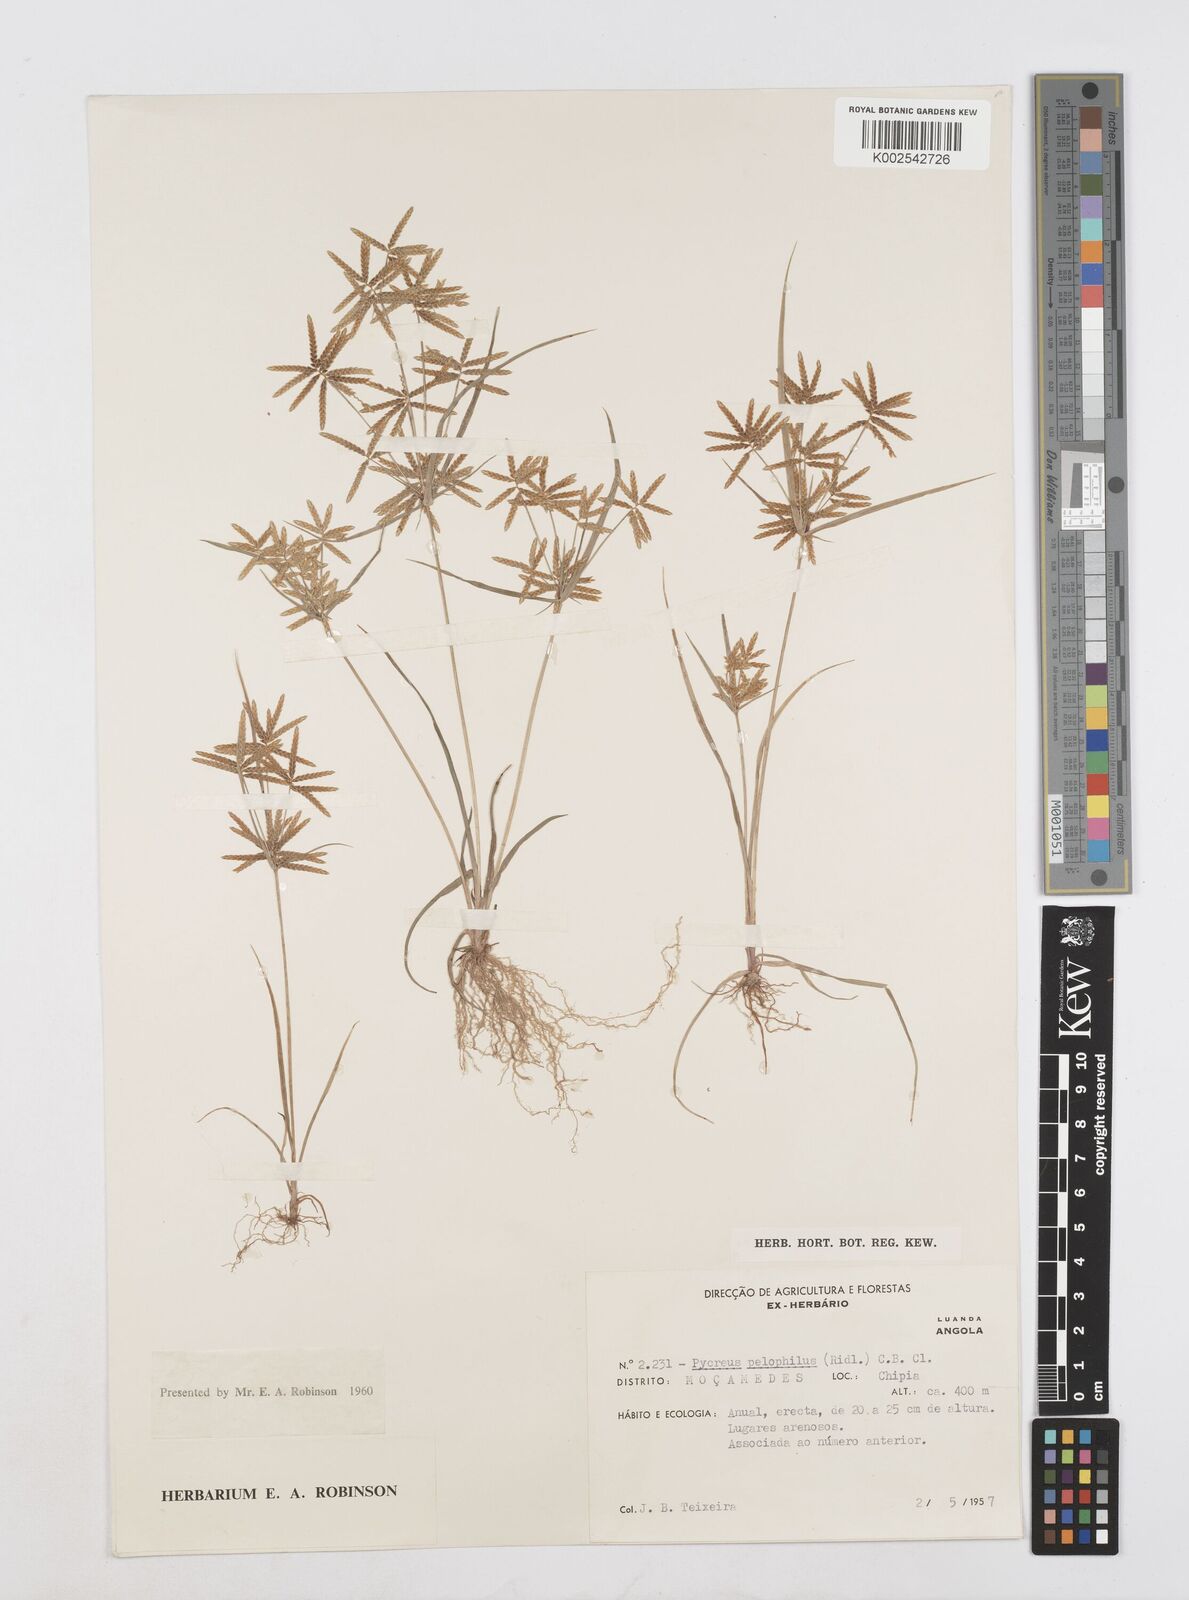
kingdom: Plantae
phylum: Tracheophyta
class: Liliopsida
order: Poales
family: Cyperaceae
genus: Cyperus
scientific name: Cyperus pelophilus
